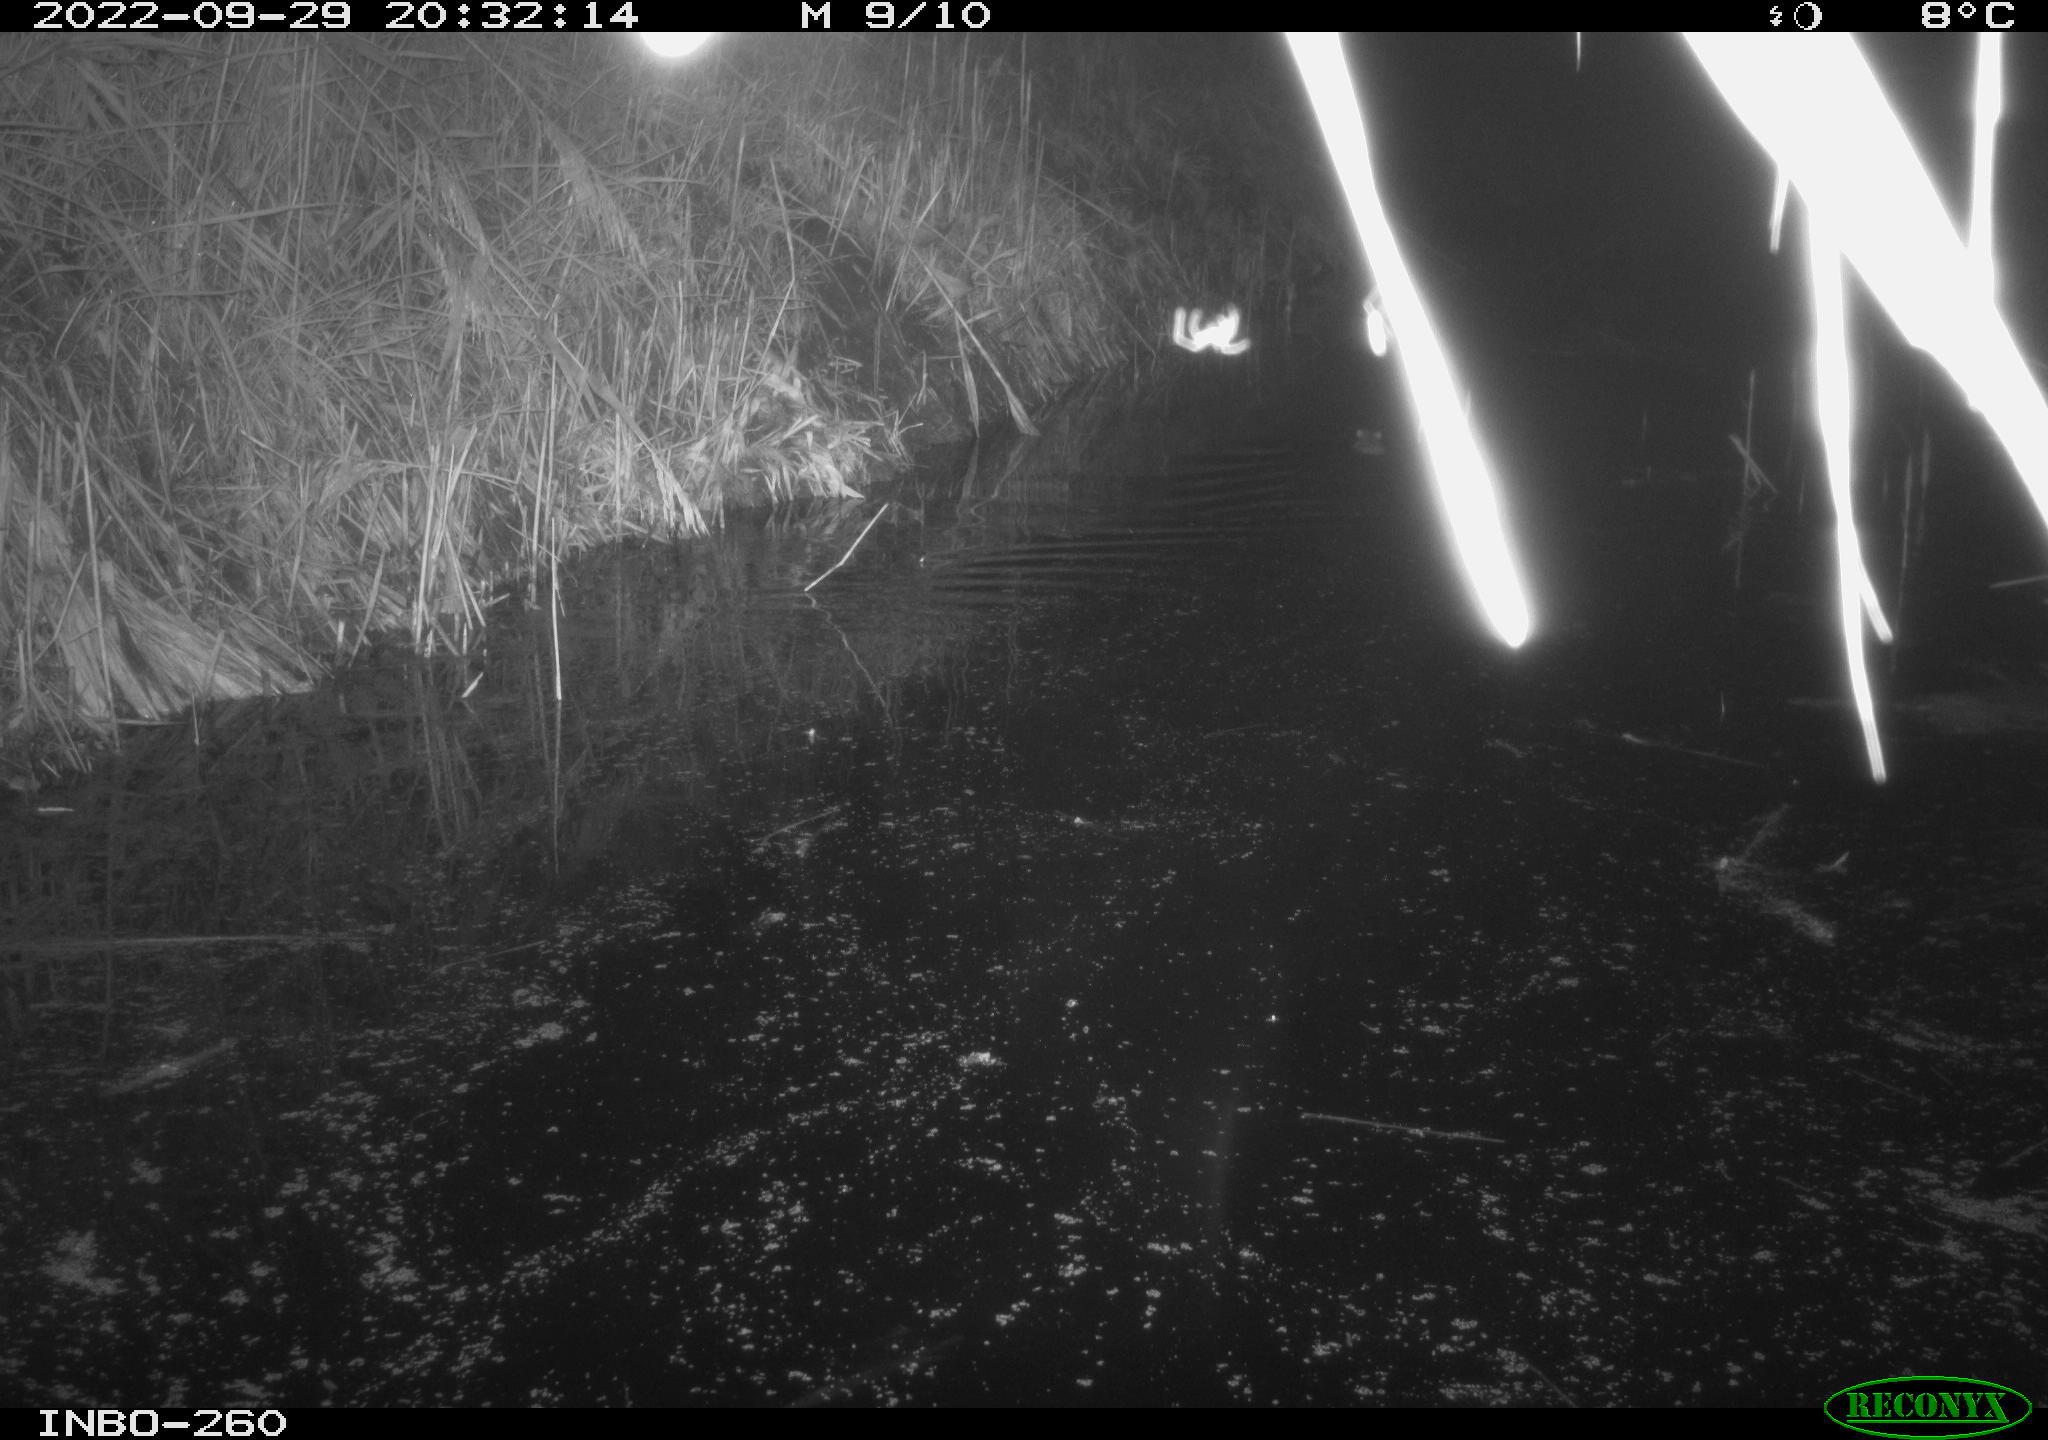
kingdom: Animalia
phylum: Chordata
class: Mammalia
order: Rodentia
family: Muridae
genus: Rattus
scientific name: Rattus norvegicus
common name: Brown rat
